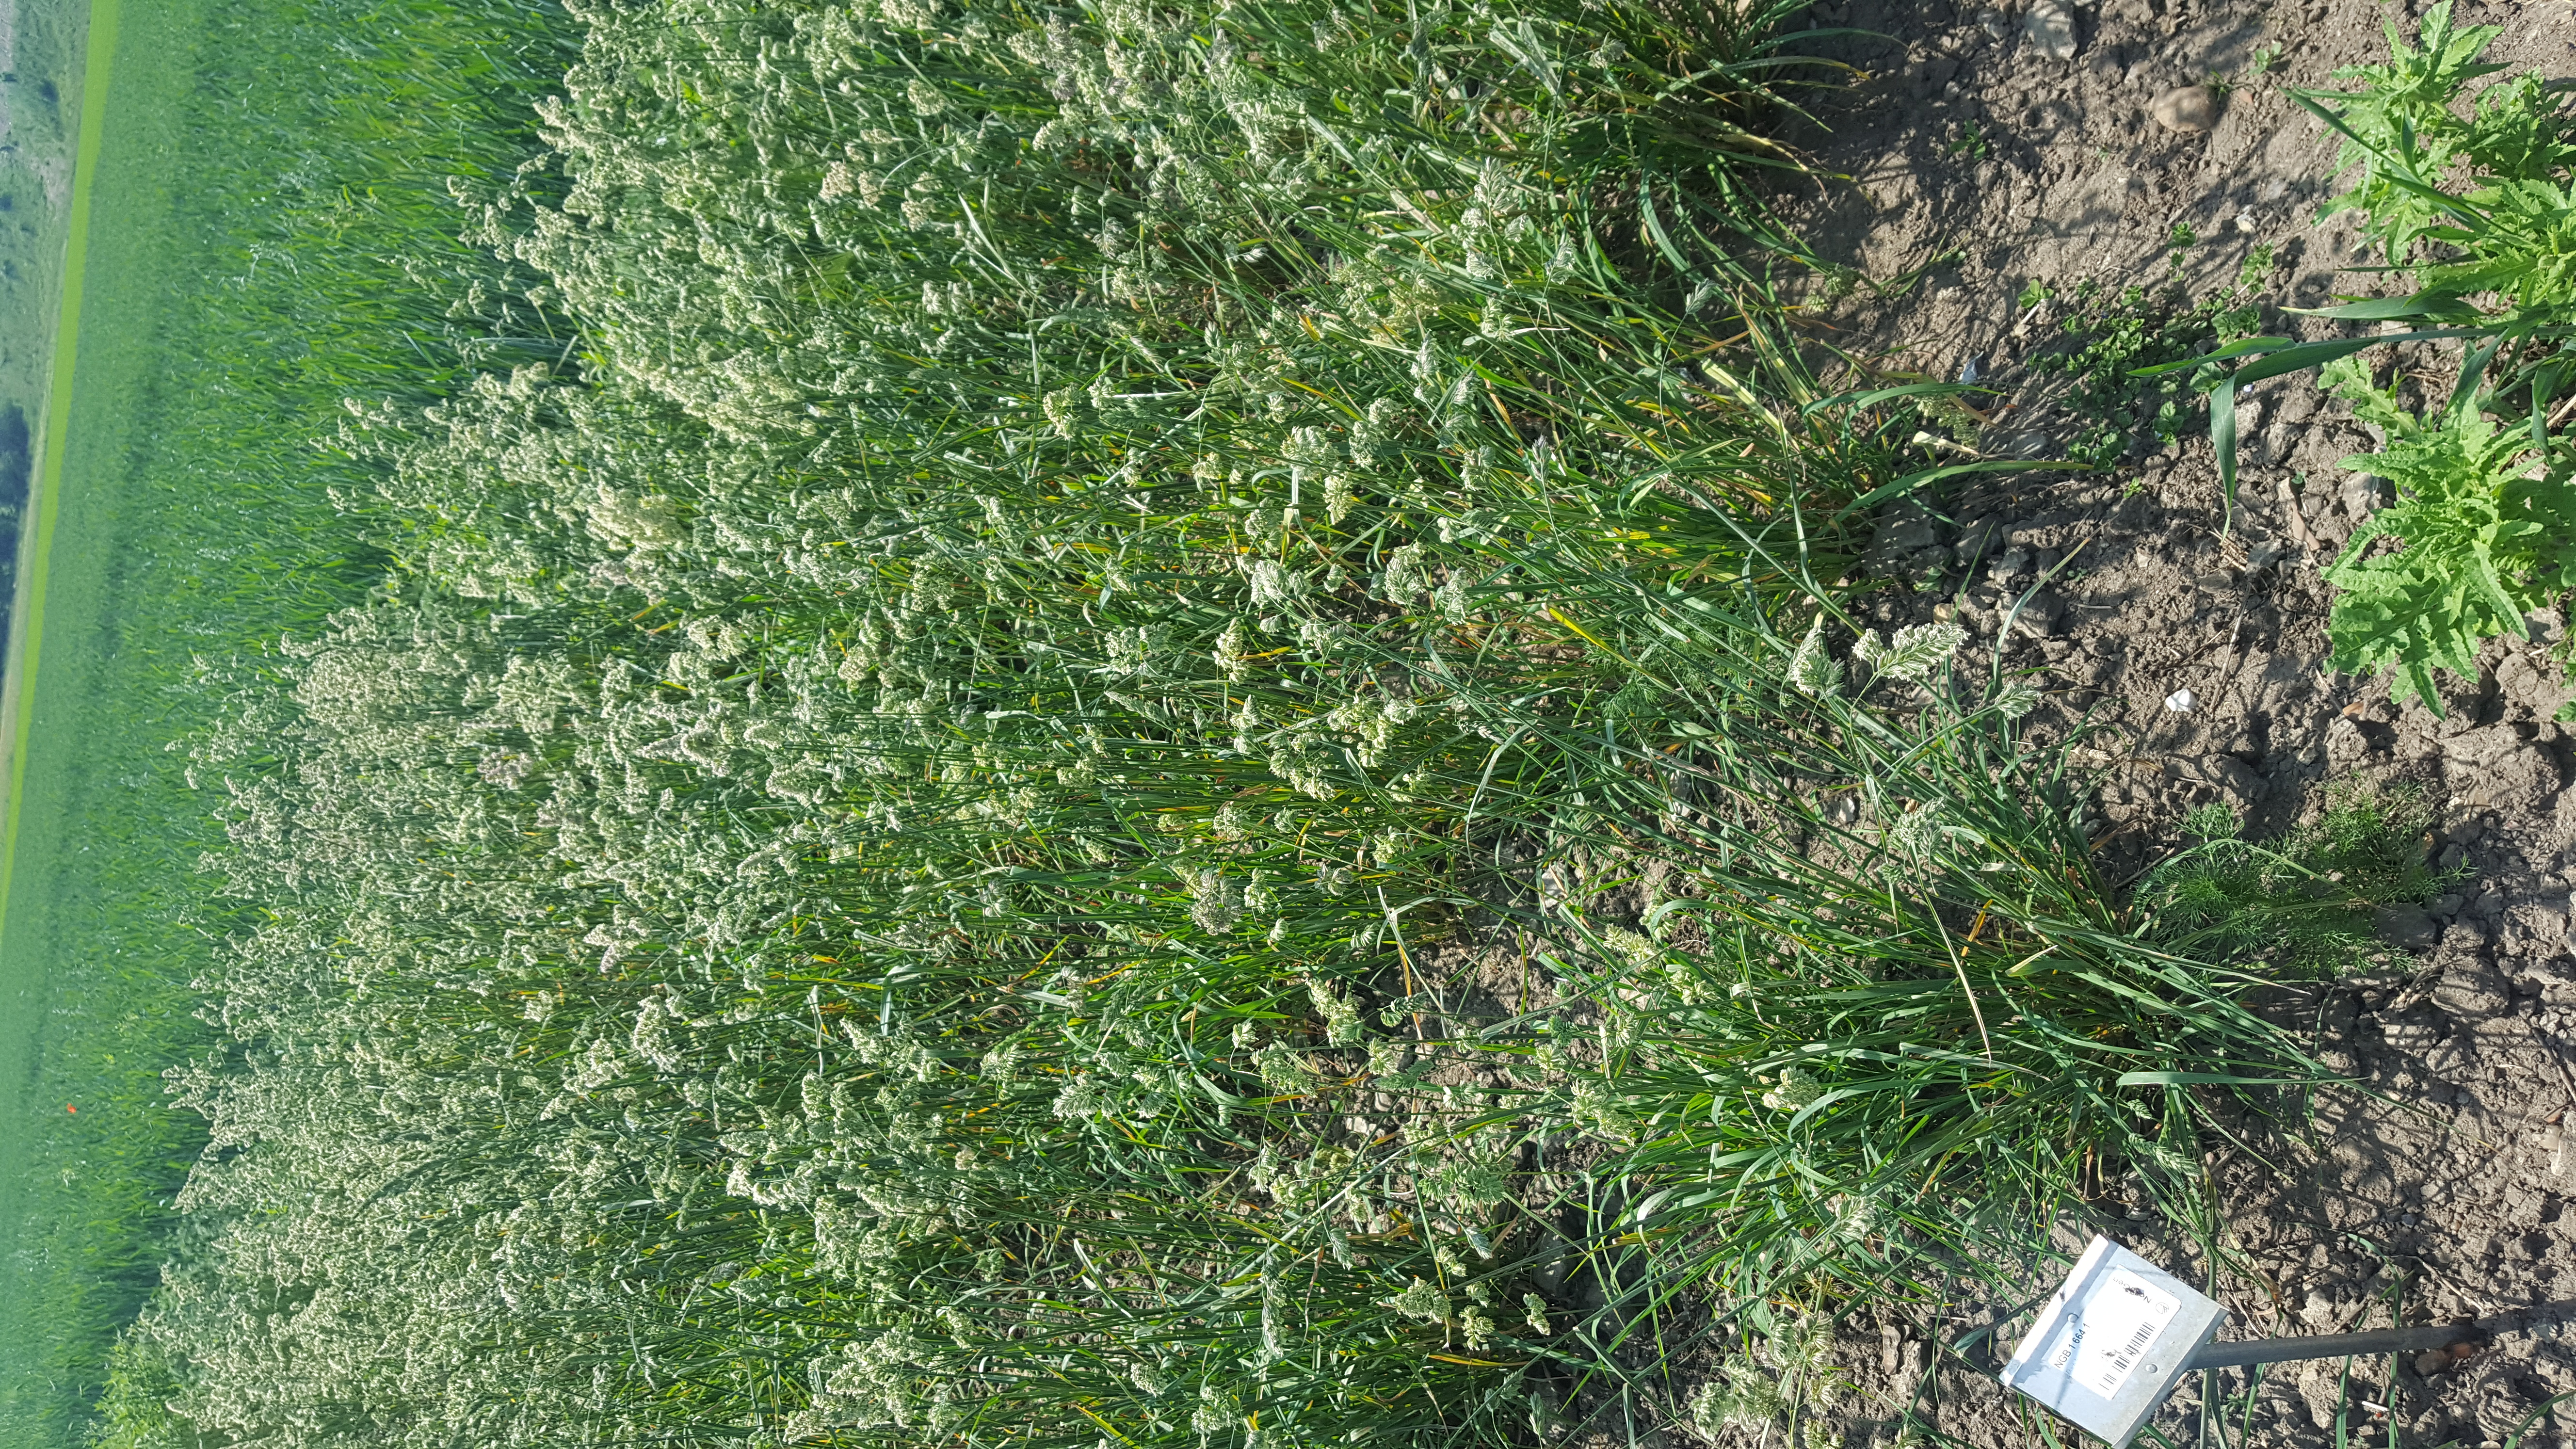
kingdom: Plantae
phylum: Tracheophyta
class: Liliopsida
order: Poales
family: Poaceae
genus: Dactylis
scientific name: Dactylis glomerata
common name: Orchardgrass
